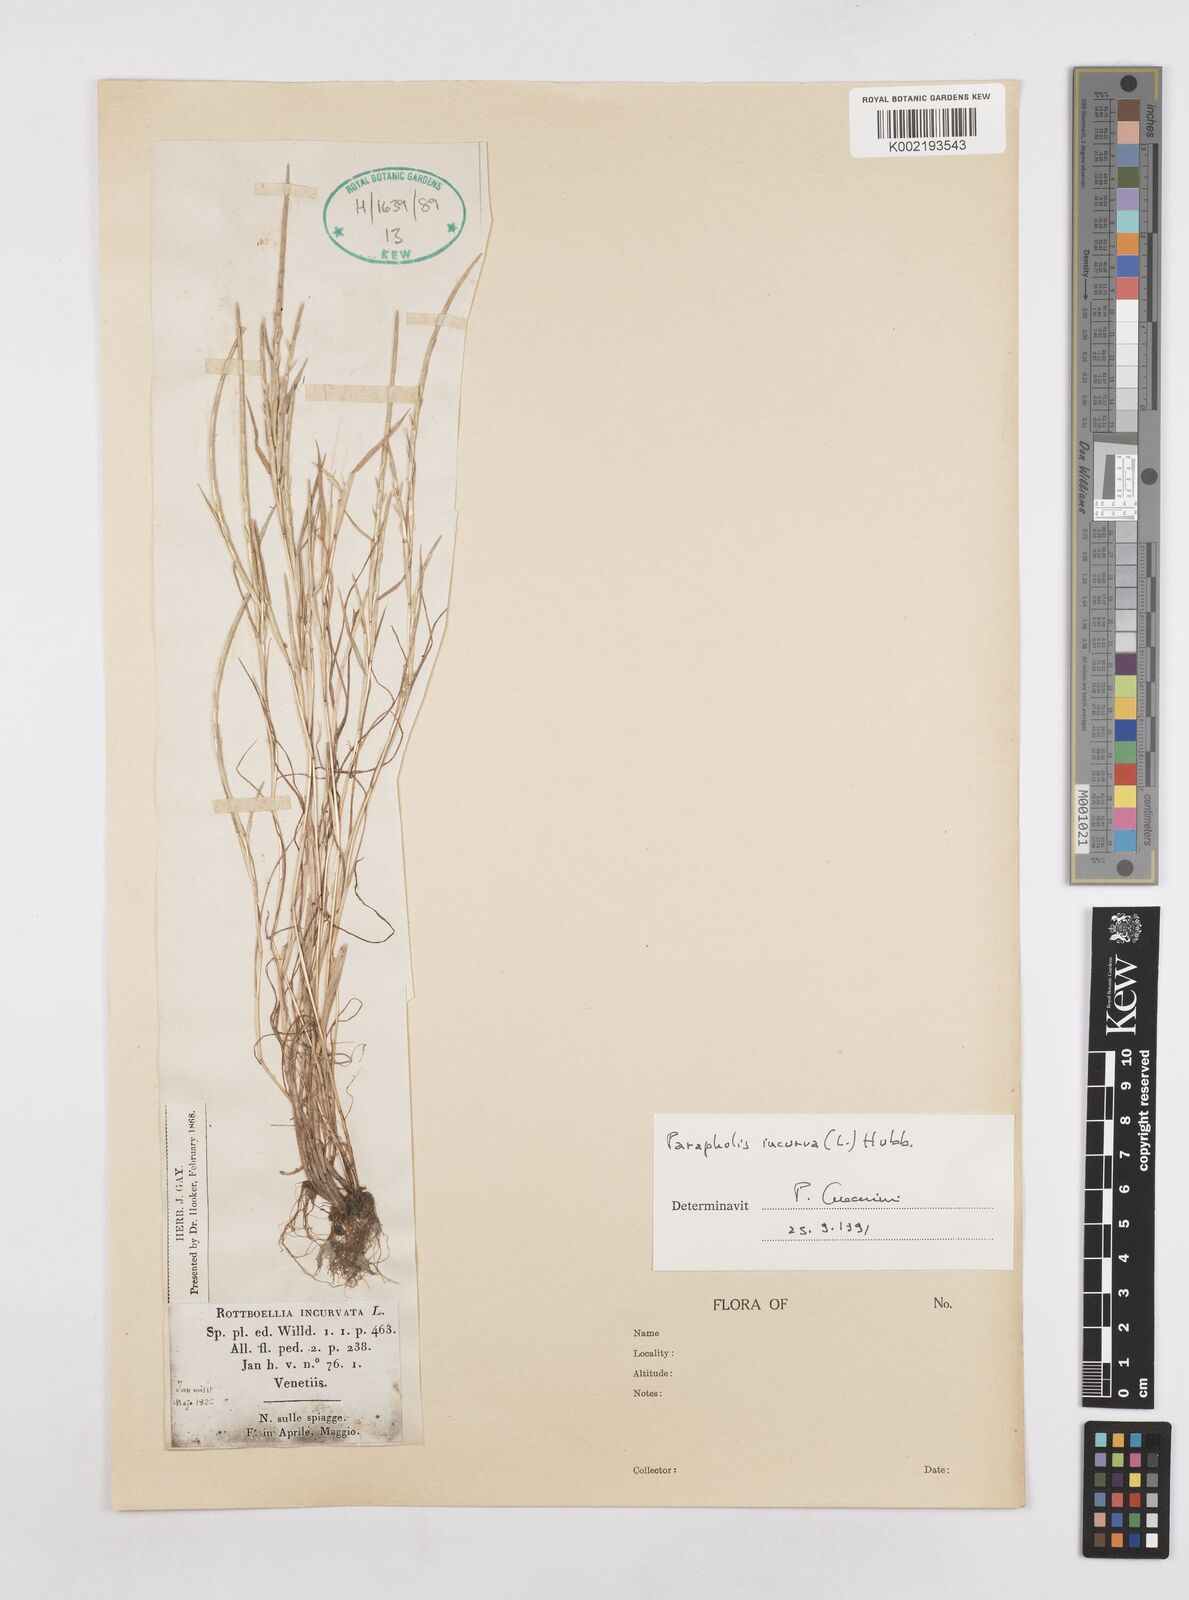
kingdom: Plantae
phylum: Tracheophyta
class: Liliopsida
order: Poales
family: Poaceae
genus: Parapholis
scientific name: Parapholis incurva
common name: Curved sicklegrass
